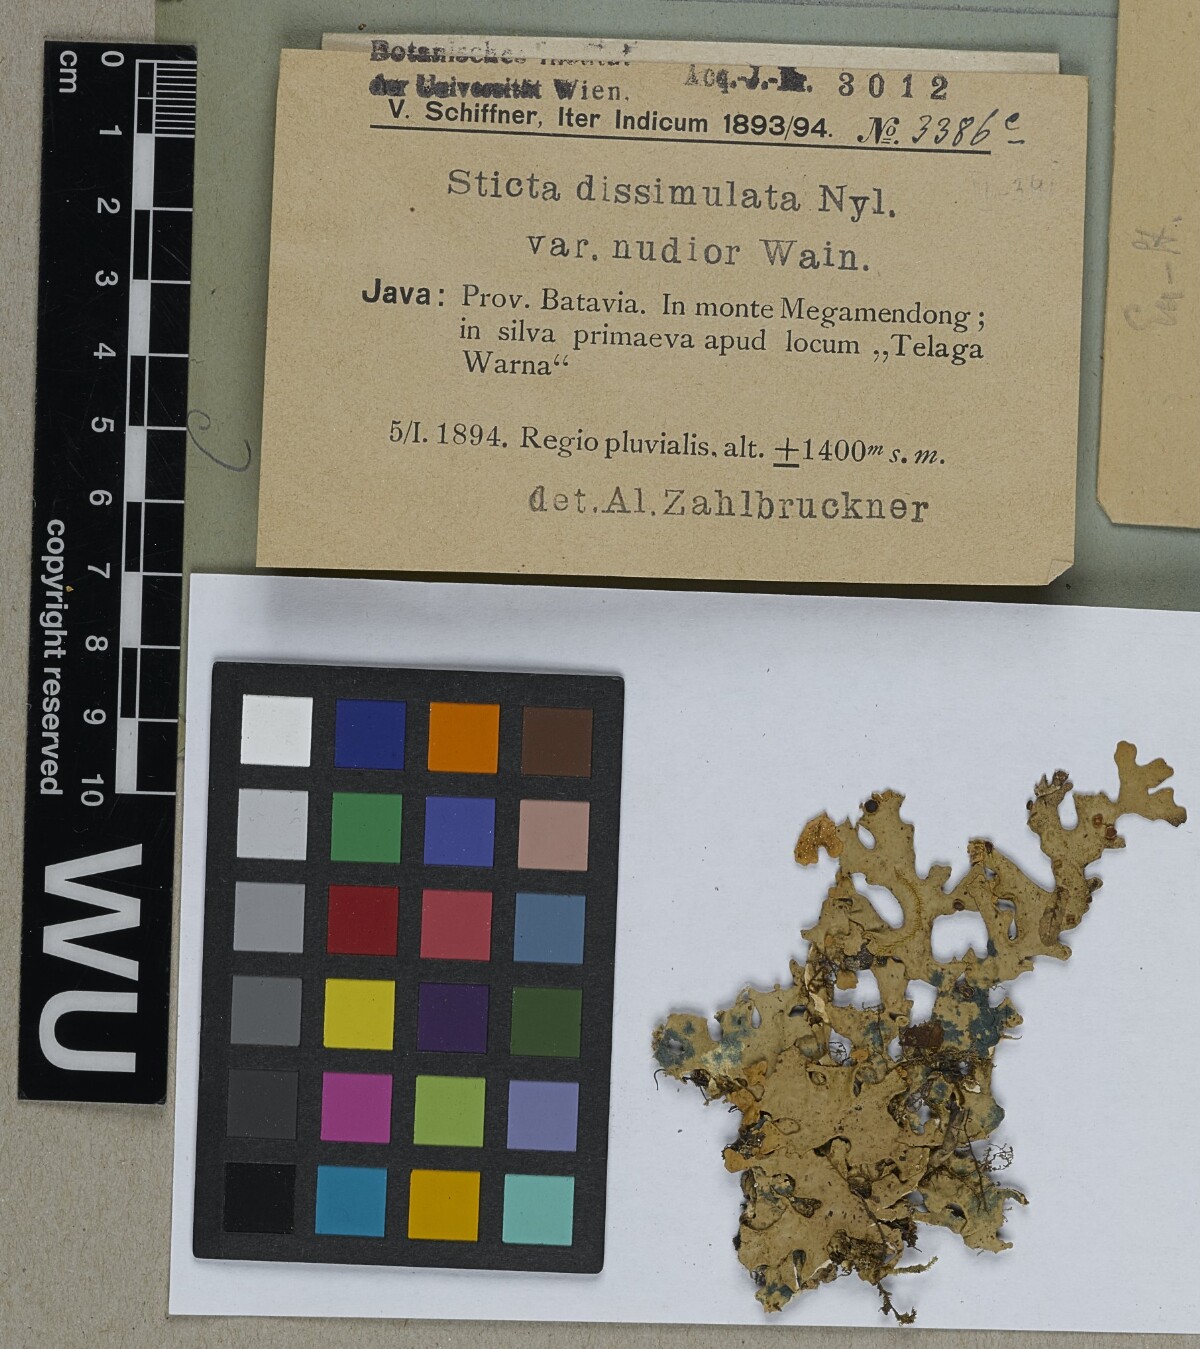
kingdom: Fungi
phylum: Ascomycota
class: Lecanoromycetes
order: Peltigerales
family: Lobariaceae
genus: Pseudocyphellaria
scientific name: Pseudocyphellaria multifida
